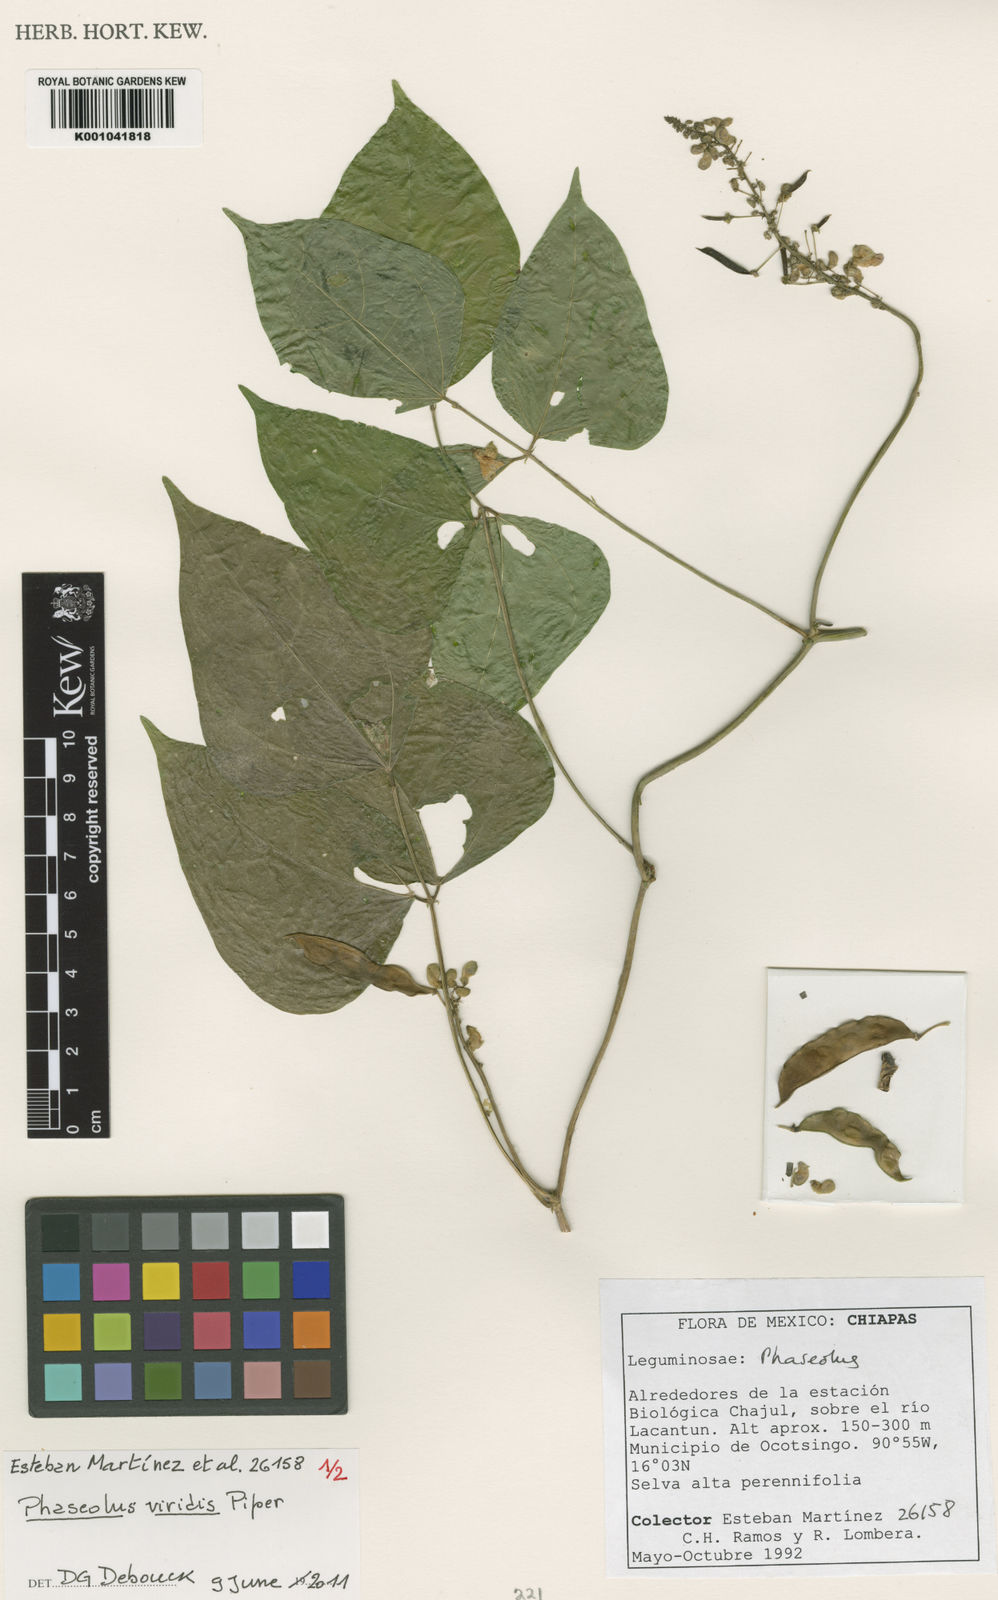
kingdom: Plantae
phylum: Tracheophyta
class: Magnoliopsida
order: Fabales
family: Fabaceae
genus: Phaseolus
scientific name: Phaseolus viridis
